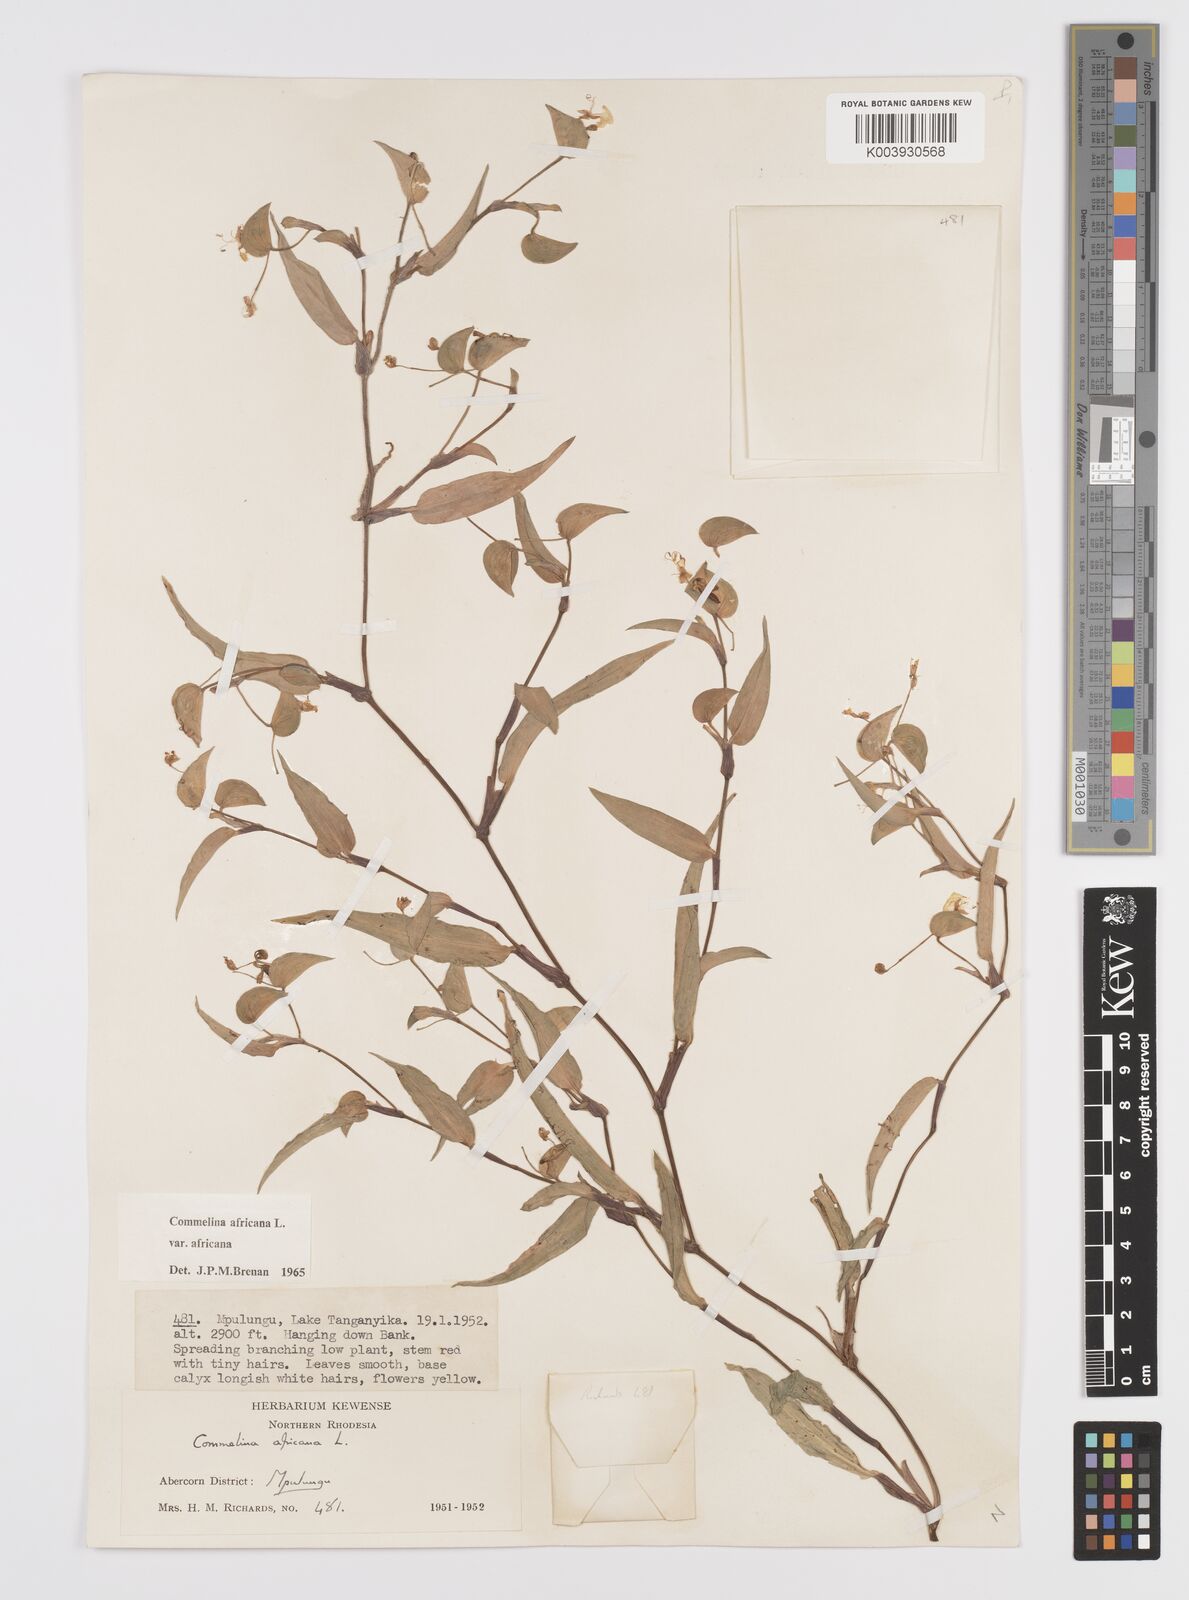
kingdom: Plantae
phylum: Tracheophyta
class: Liliopsida
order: Commelinales
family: Commelinaceae
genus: Commelina
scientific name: Commelina africana
